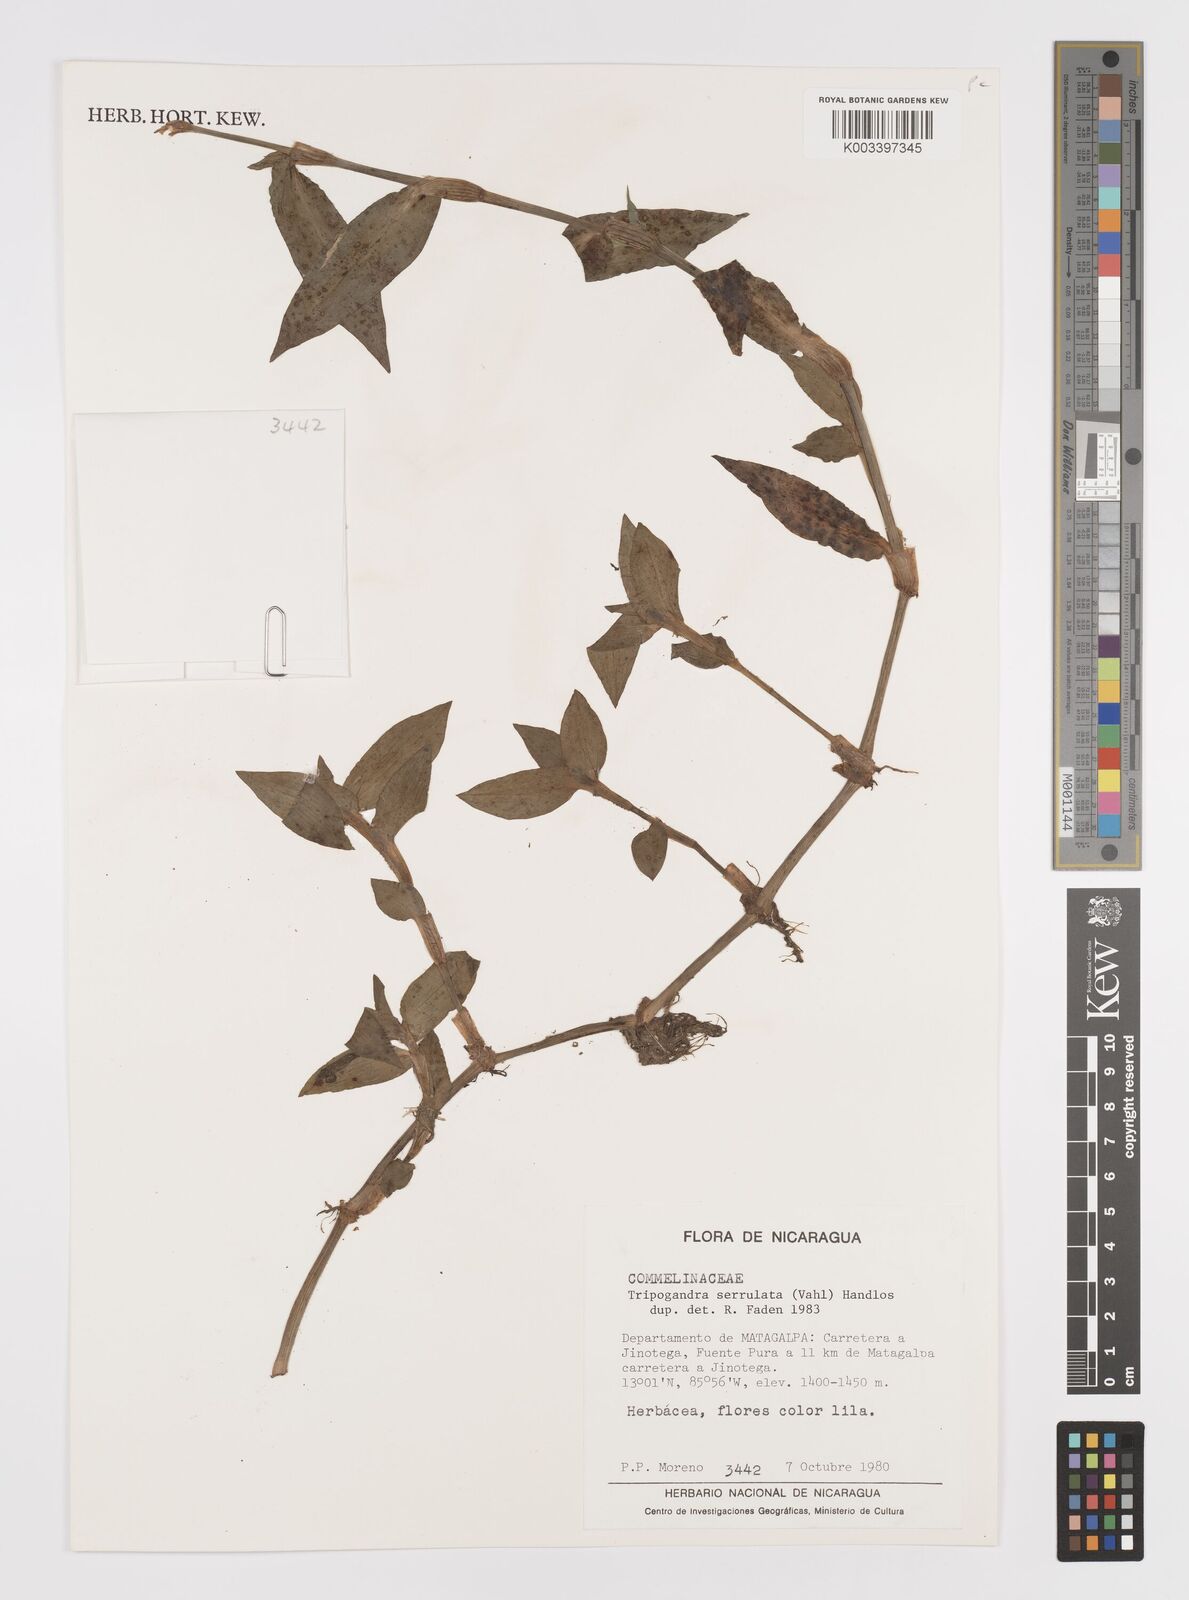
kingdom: Plantae
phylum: Tracheophyta
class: Liliopsida
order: Commelinales
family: Commelinaceae
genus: Callisia
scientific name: Callisia serrulata
